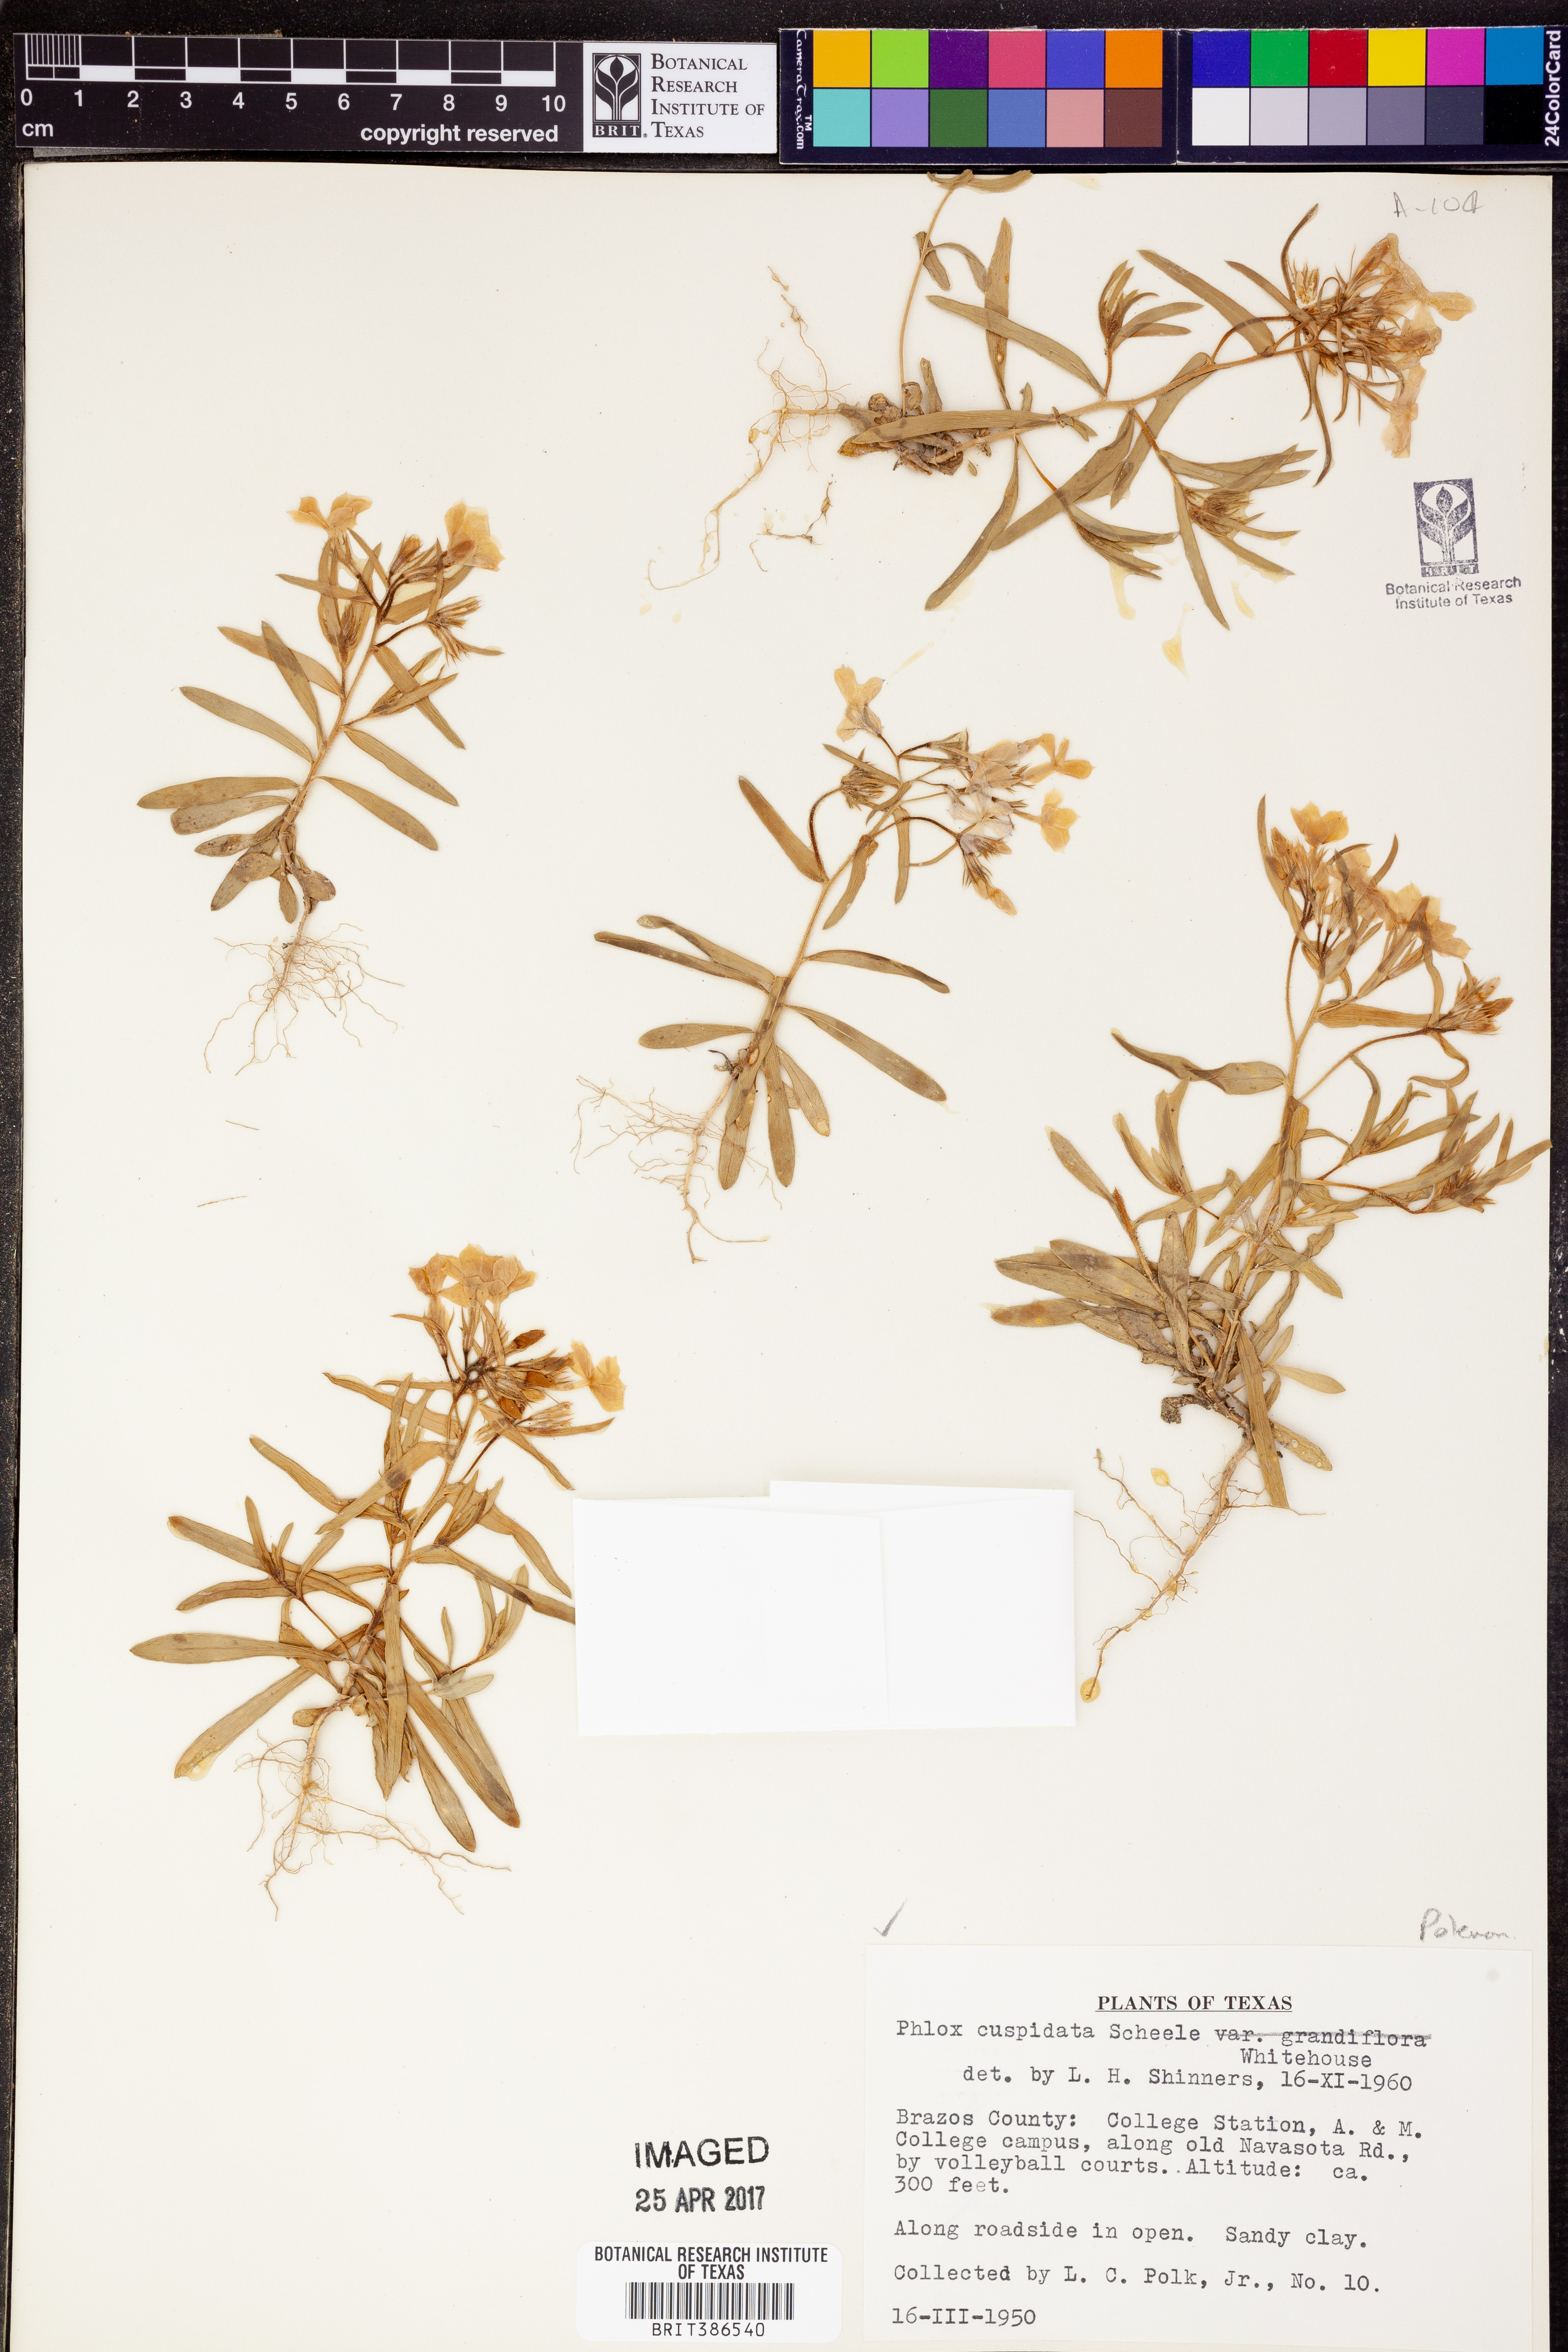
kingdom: Plantae
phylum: Tracheophyta
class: Magnoliopsida
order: Ericales
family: Polemoniaceae
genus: Phlox
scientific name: Phlox cuspidata
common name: Pointed phlox
